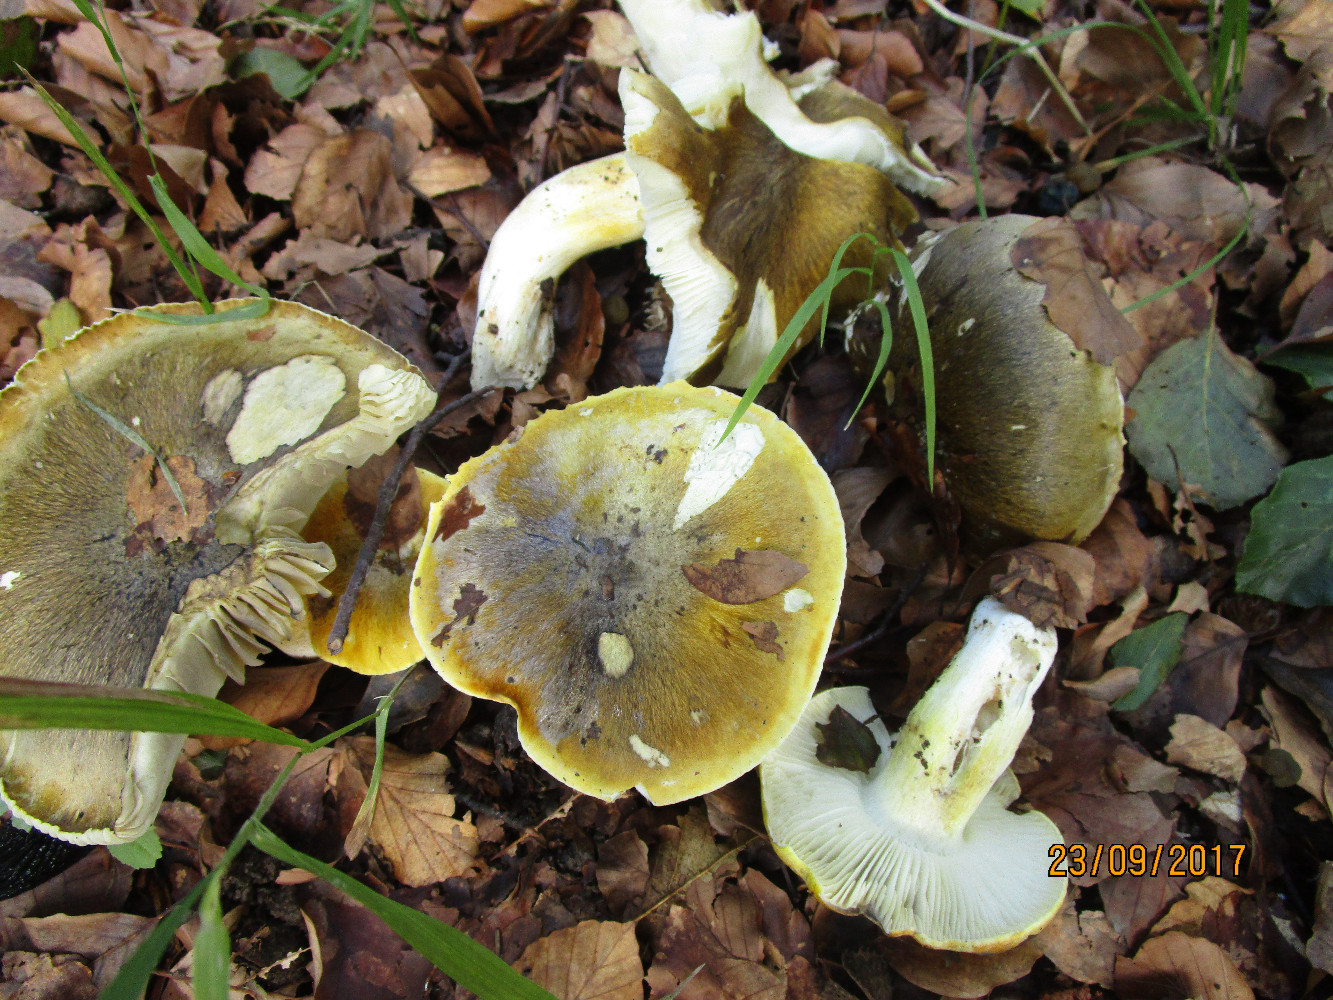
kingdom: Fungi
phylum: Basidiomycota
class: Agaricomycetes
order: Agaricales
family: Tricholomataceae
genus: Tricholoma
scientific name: Tricholoma sejunctum
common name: grøngul ridderhat
